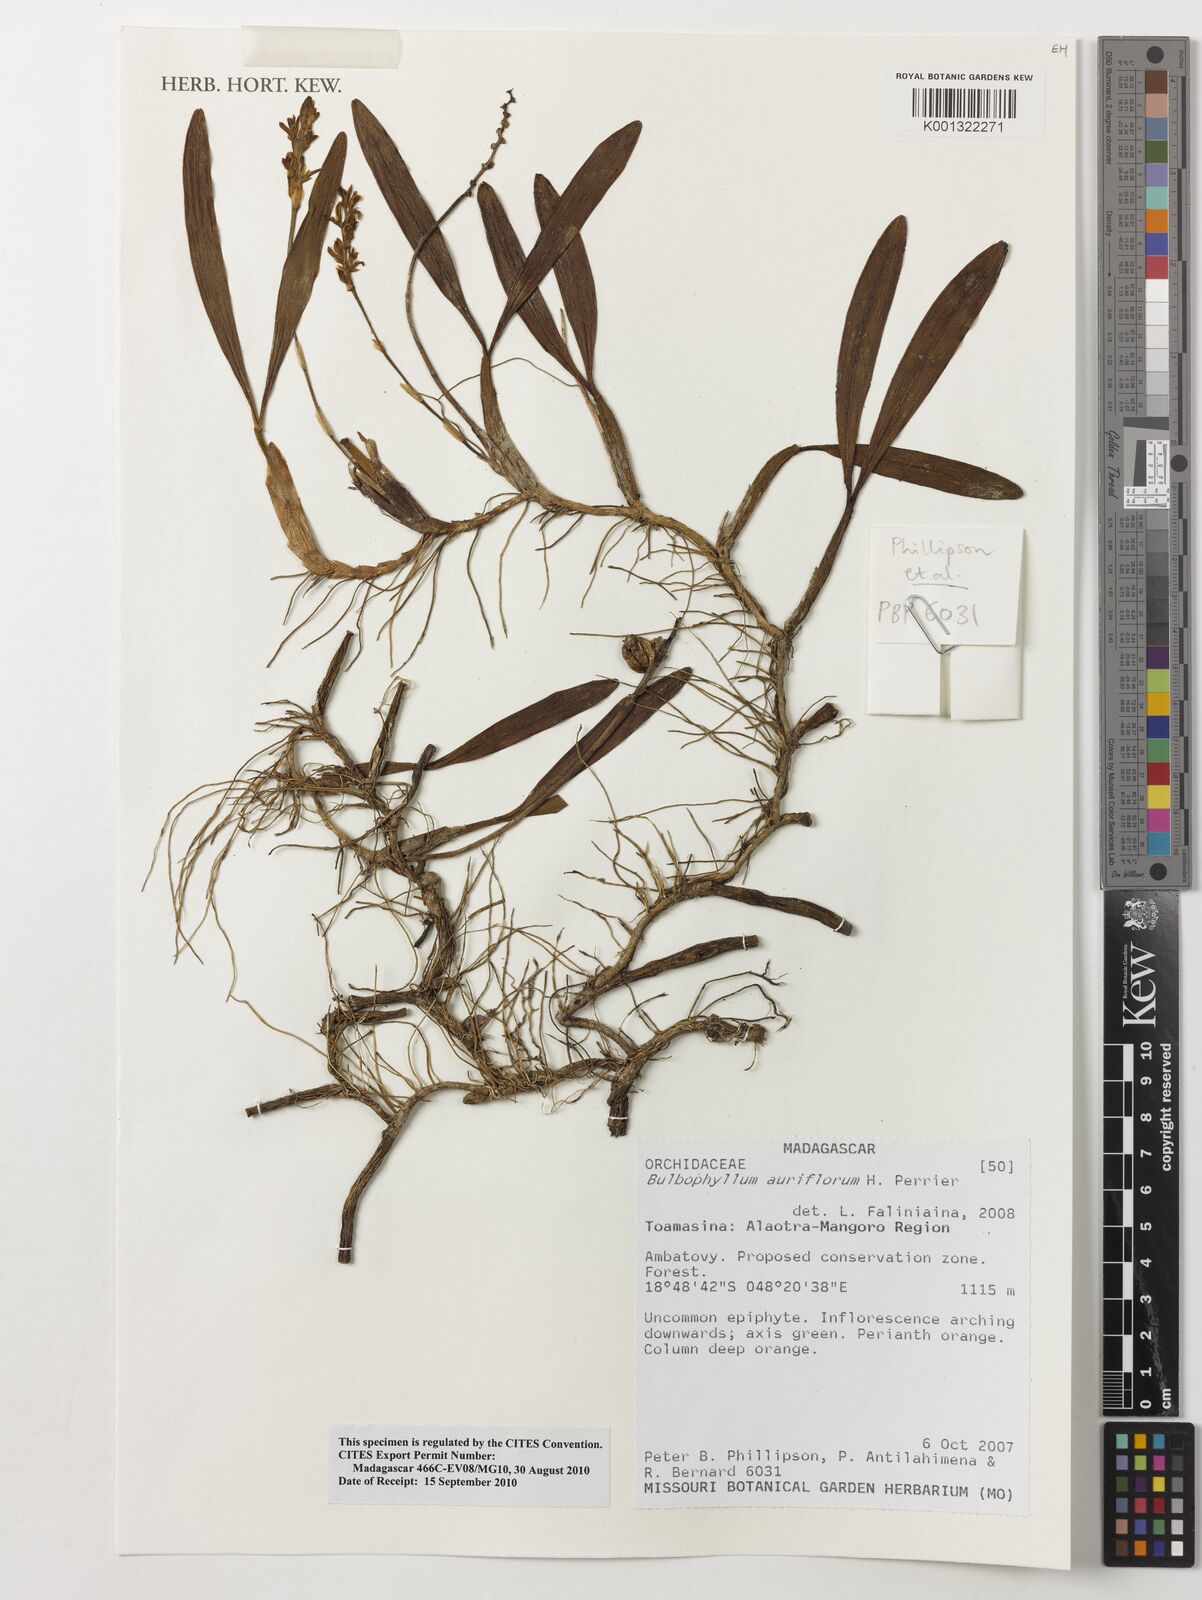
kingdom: Plantae
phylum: Tracheophyta
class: Liliopsida
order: Asparagales
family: Orchidaceae
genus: Bulbophyllum
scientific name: Bulbophyllum auriflorum
